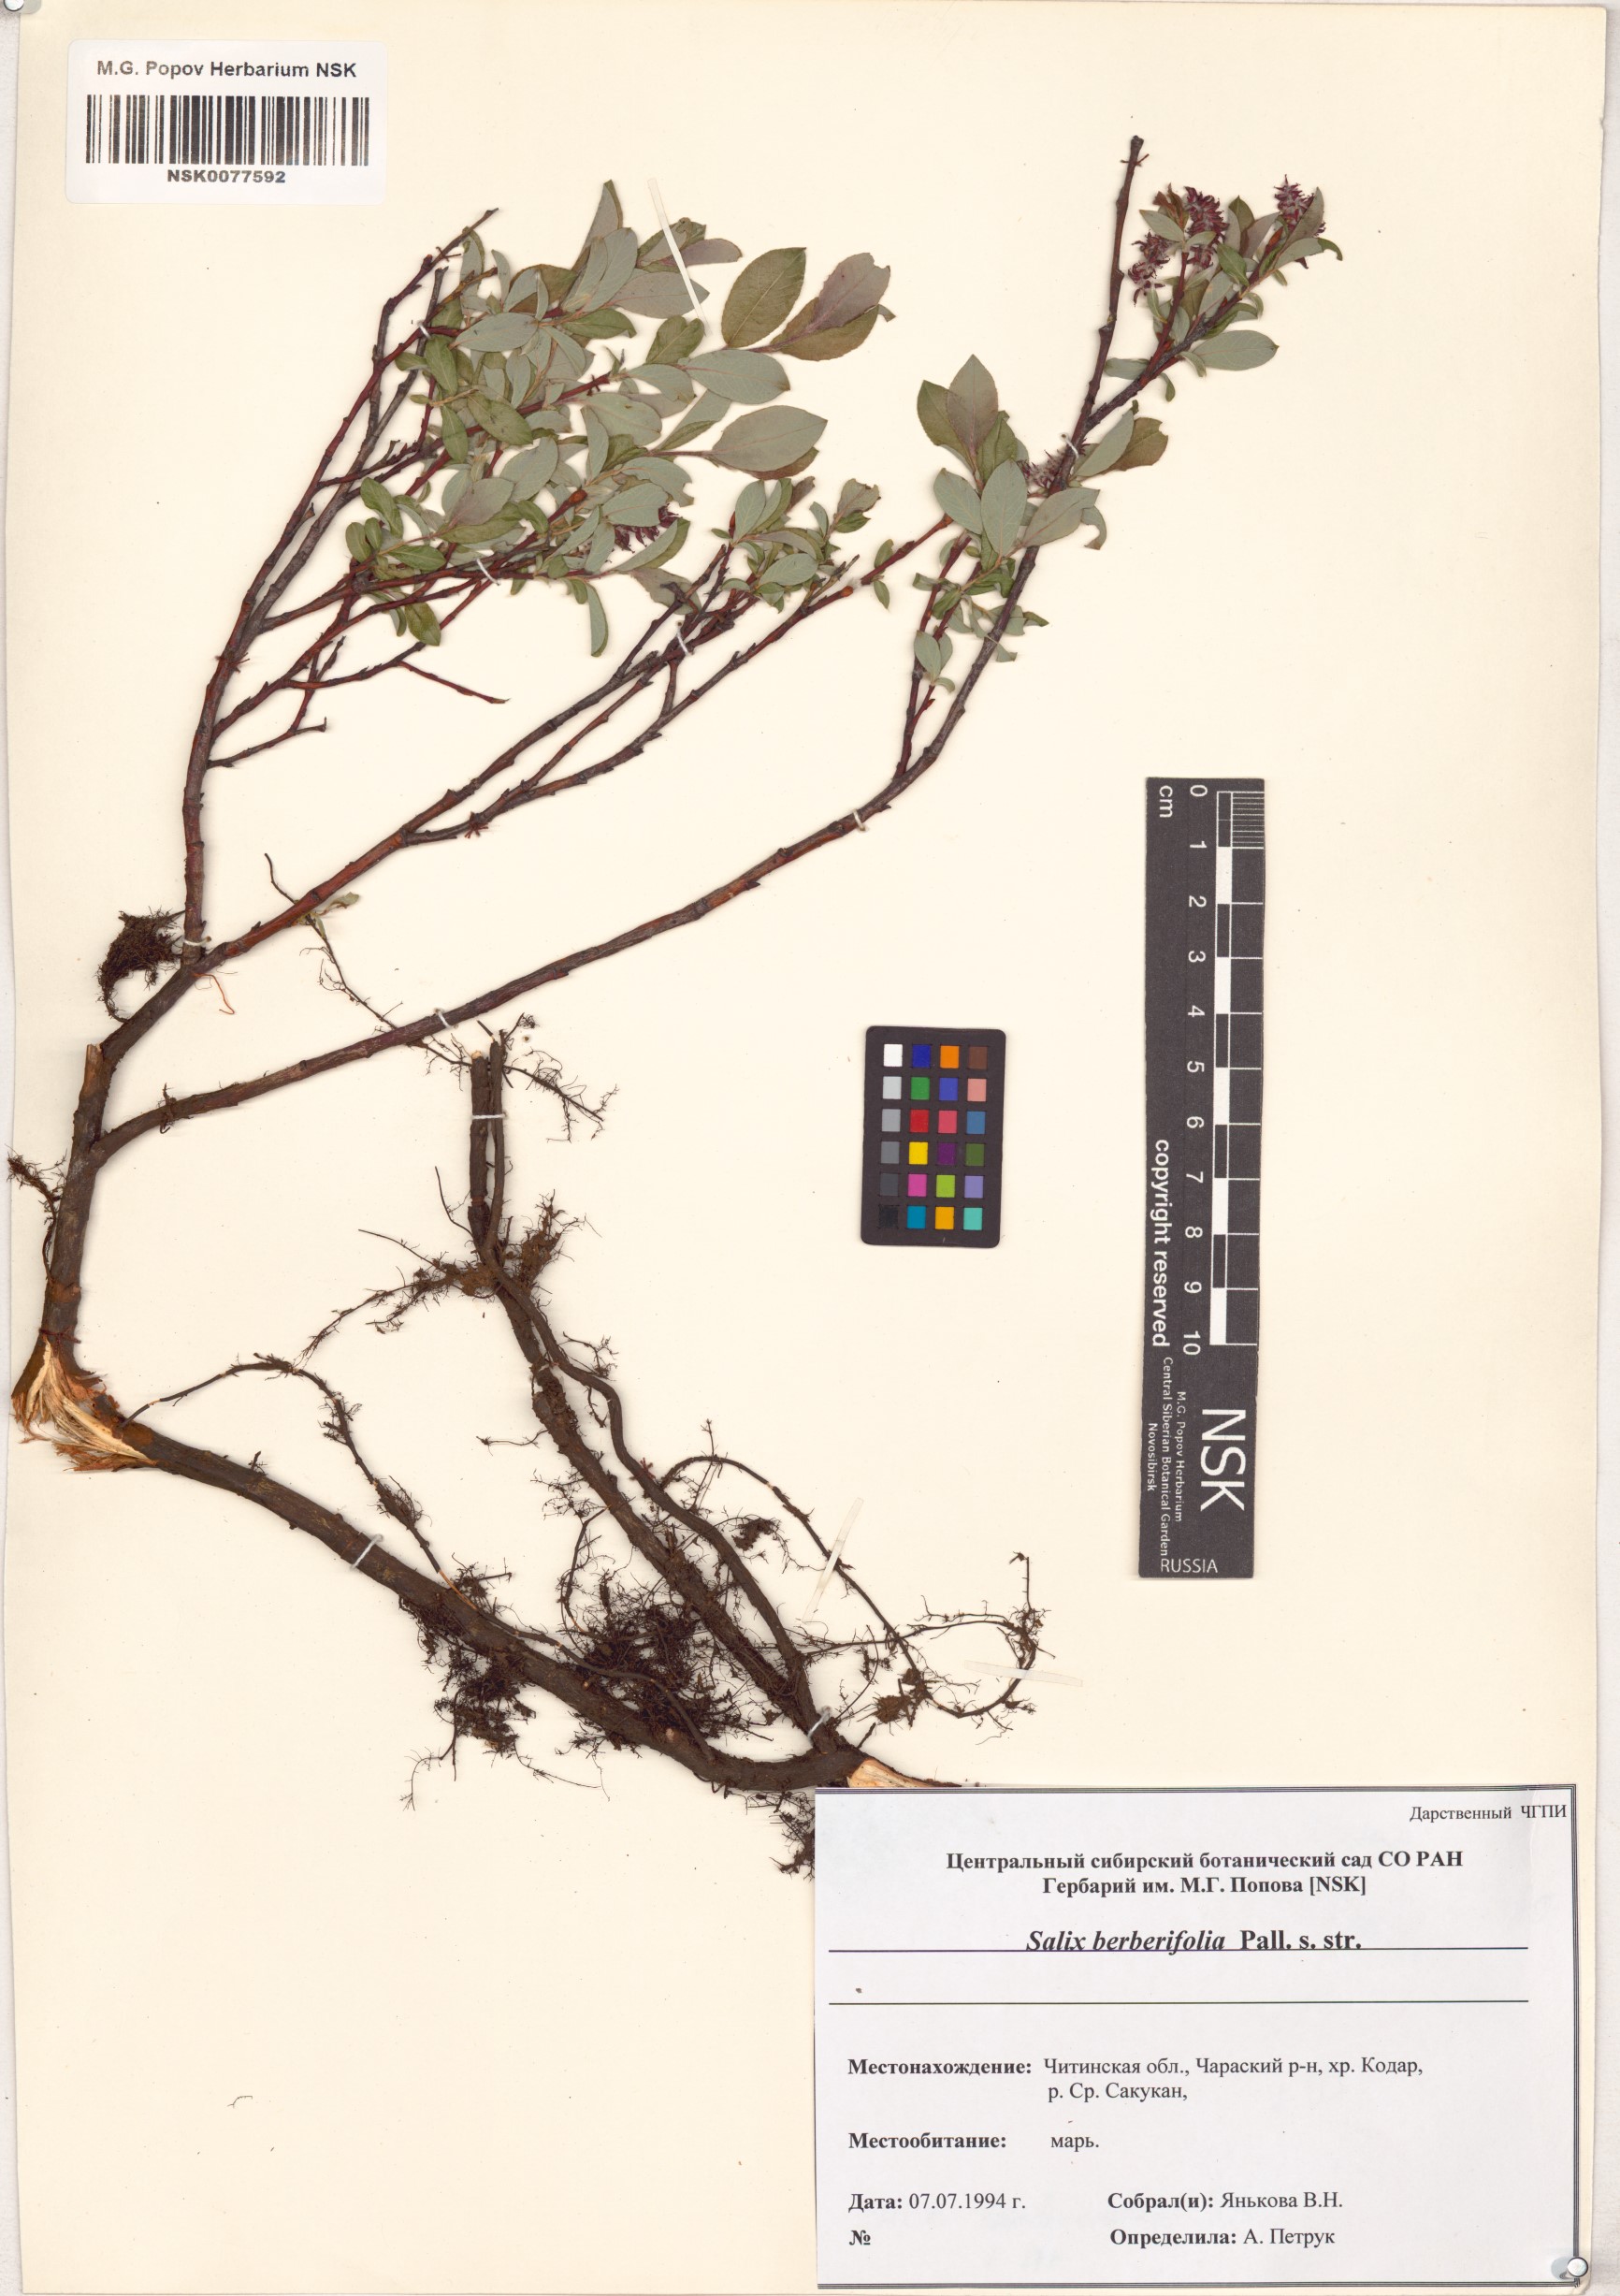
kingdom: Plantae
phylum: Tracheophyta
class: Magnoliopsida
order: Malpighiales
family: Salicaceae
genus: Salix
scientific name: Salix berberifolia
